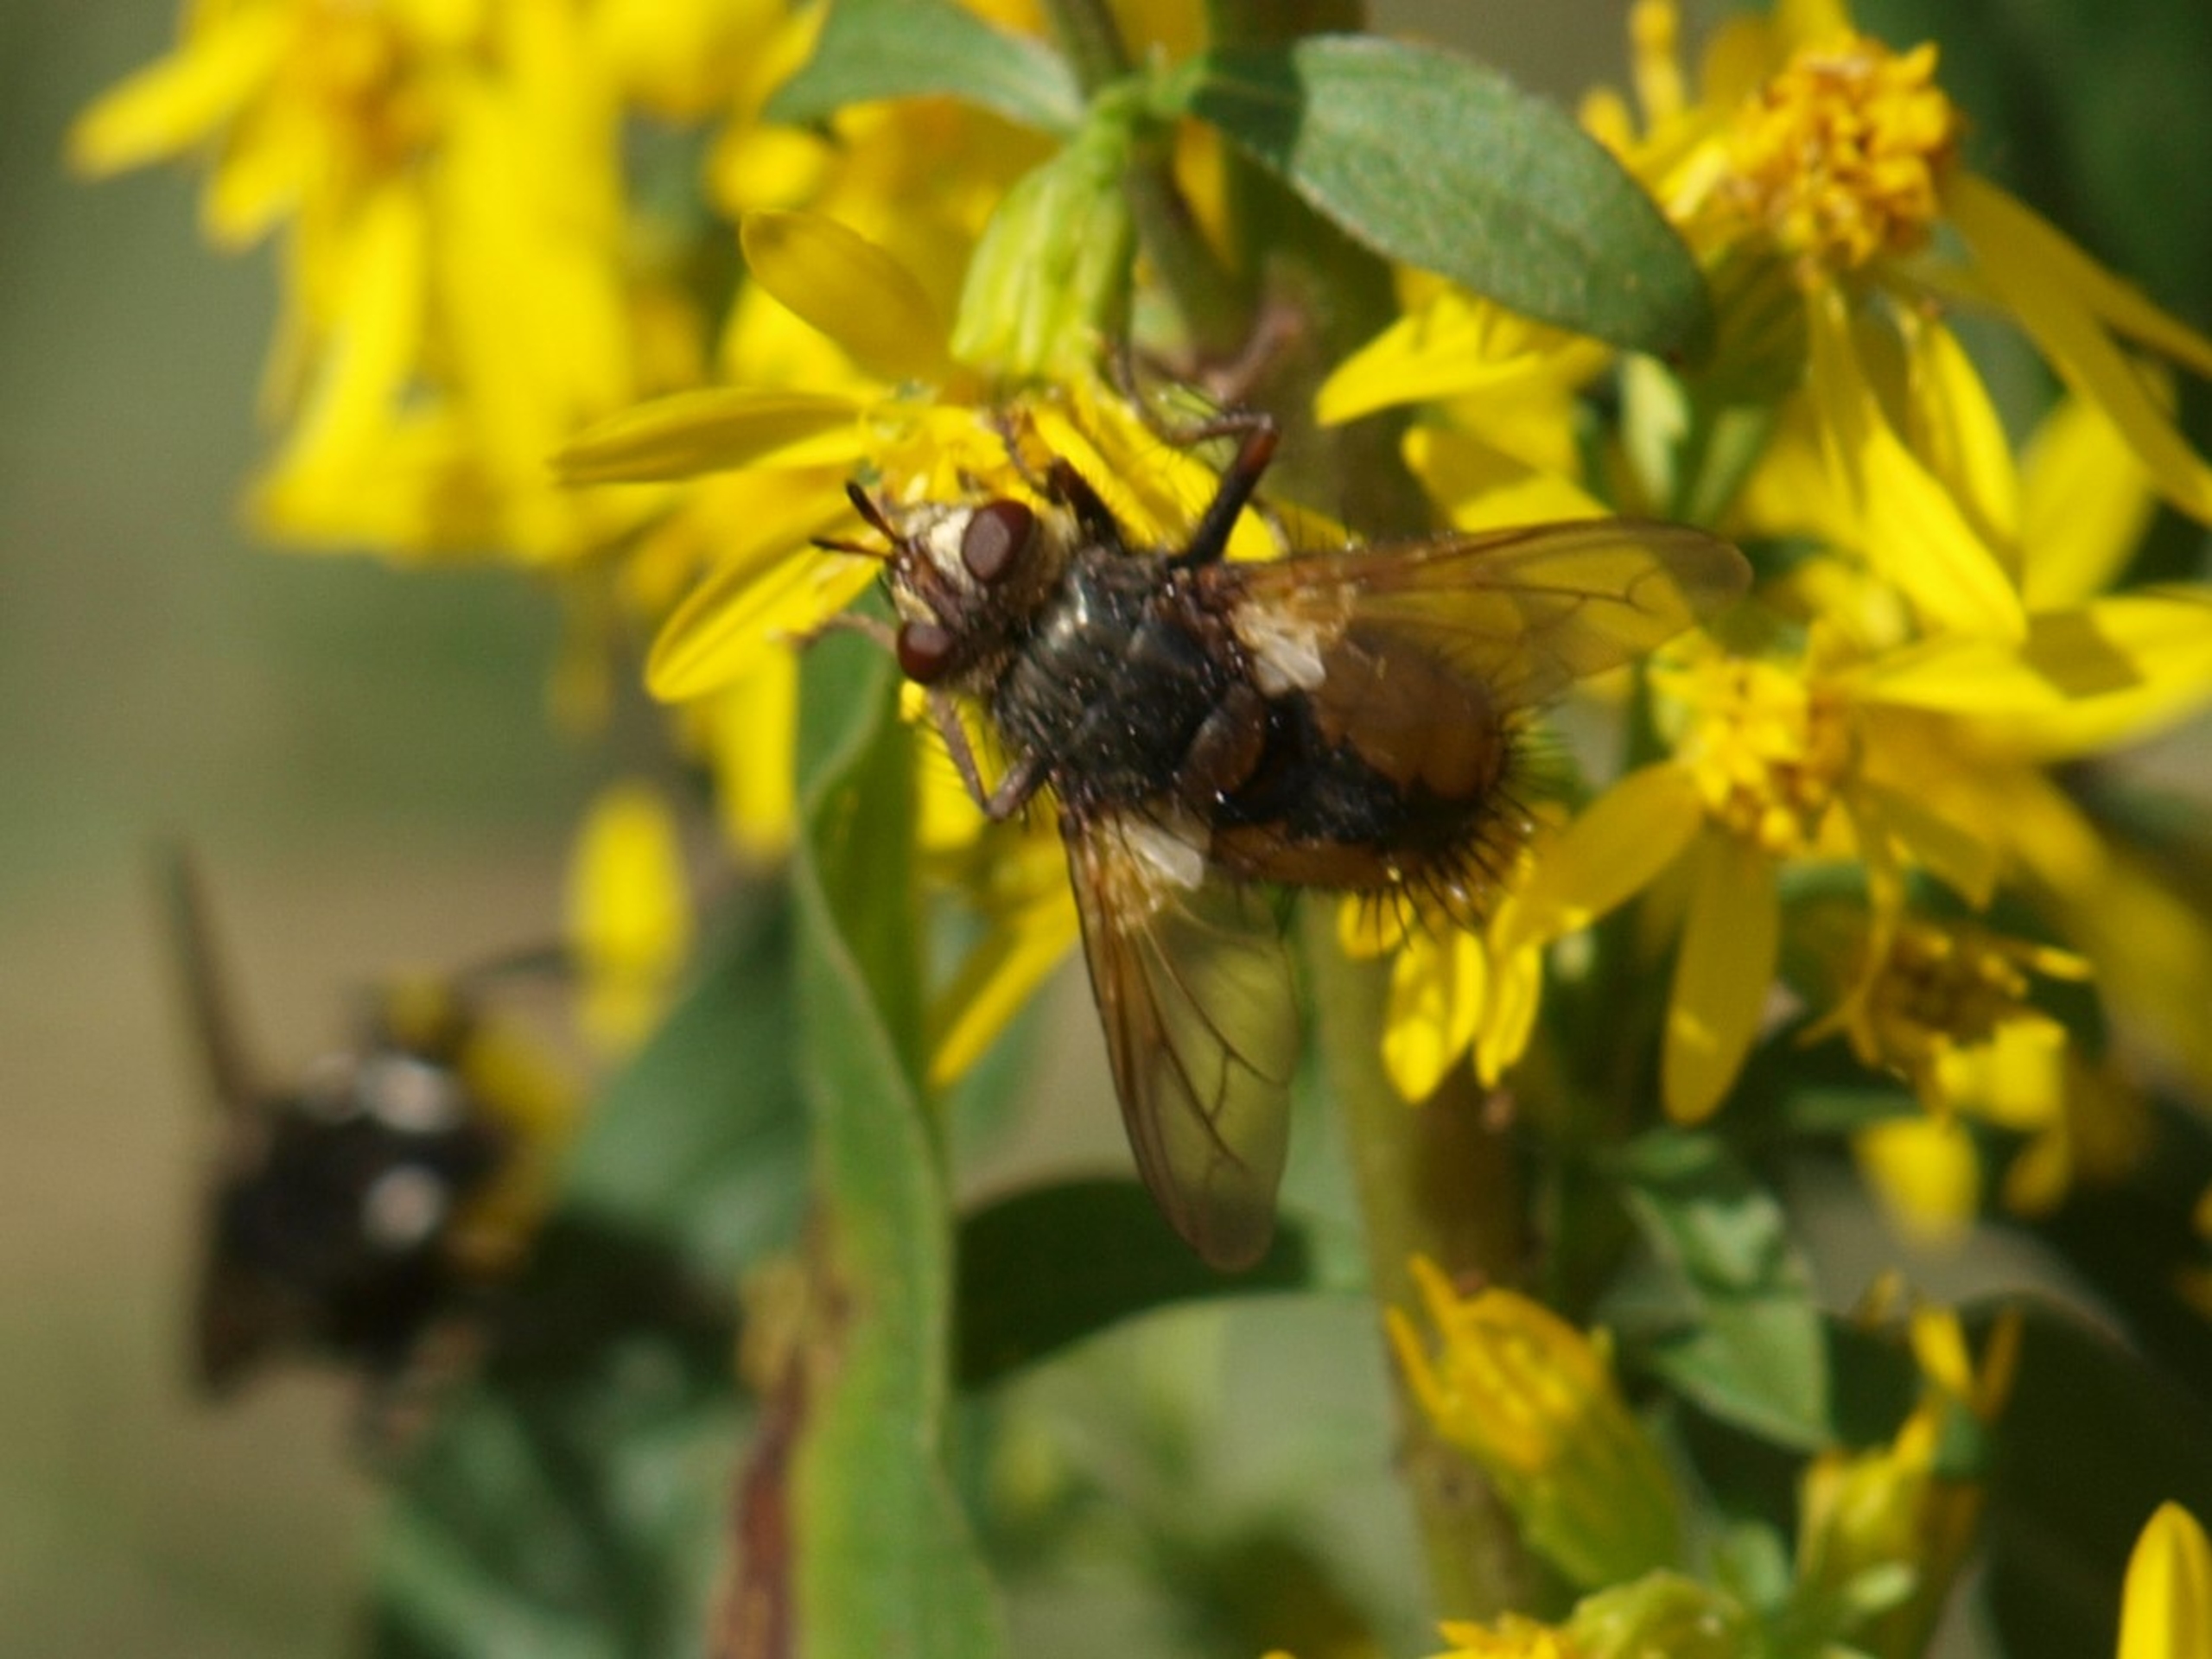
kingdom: Animalia
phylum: Arthropoda
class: Insecta
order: Diptera
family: Tachinidae
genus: Tachina
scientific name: Tachina fera
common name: Mellemfluen oskar
